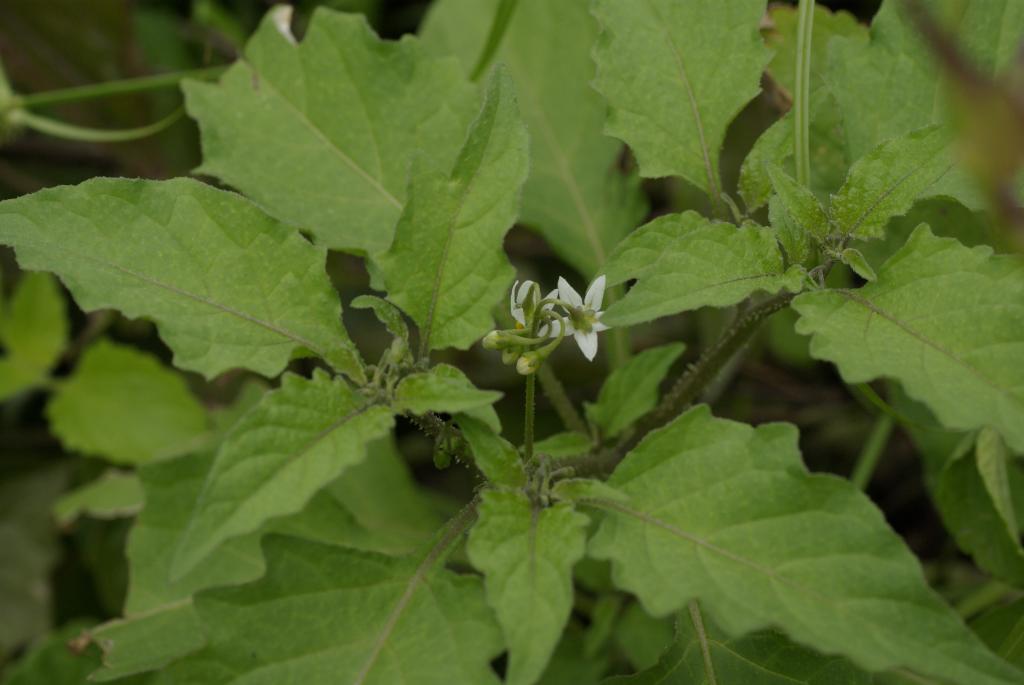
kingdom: Plantae
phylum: Tracheophyta
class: Magnoliopsida
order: Solanales
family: Solanaceae
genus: Solanum
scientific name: Solanum americanum
